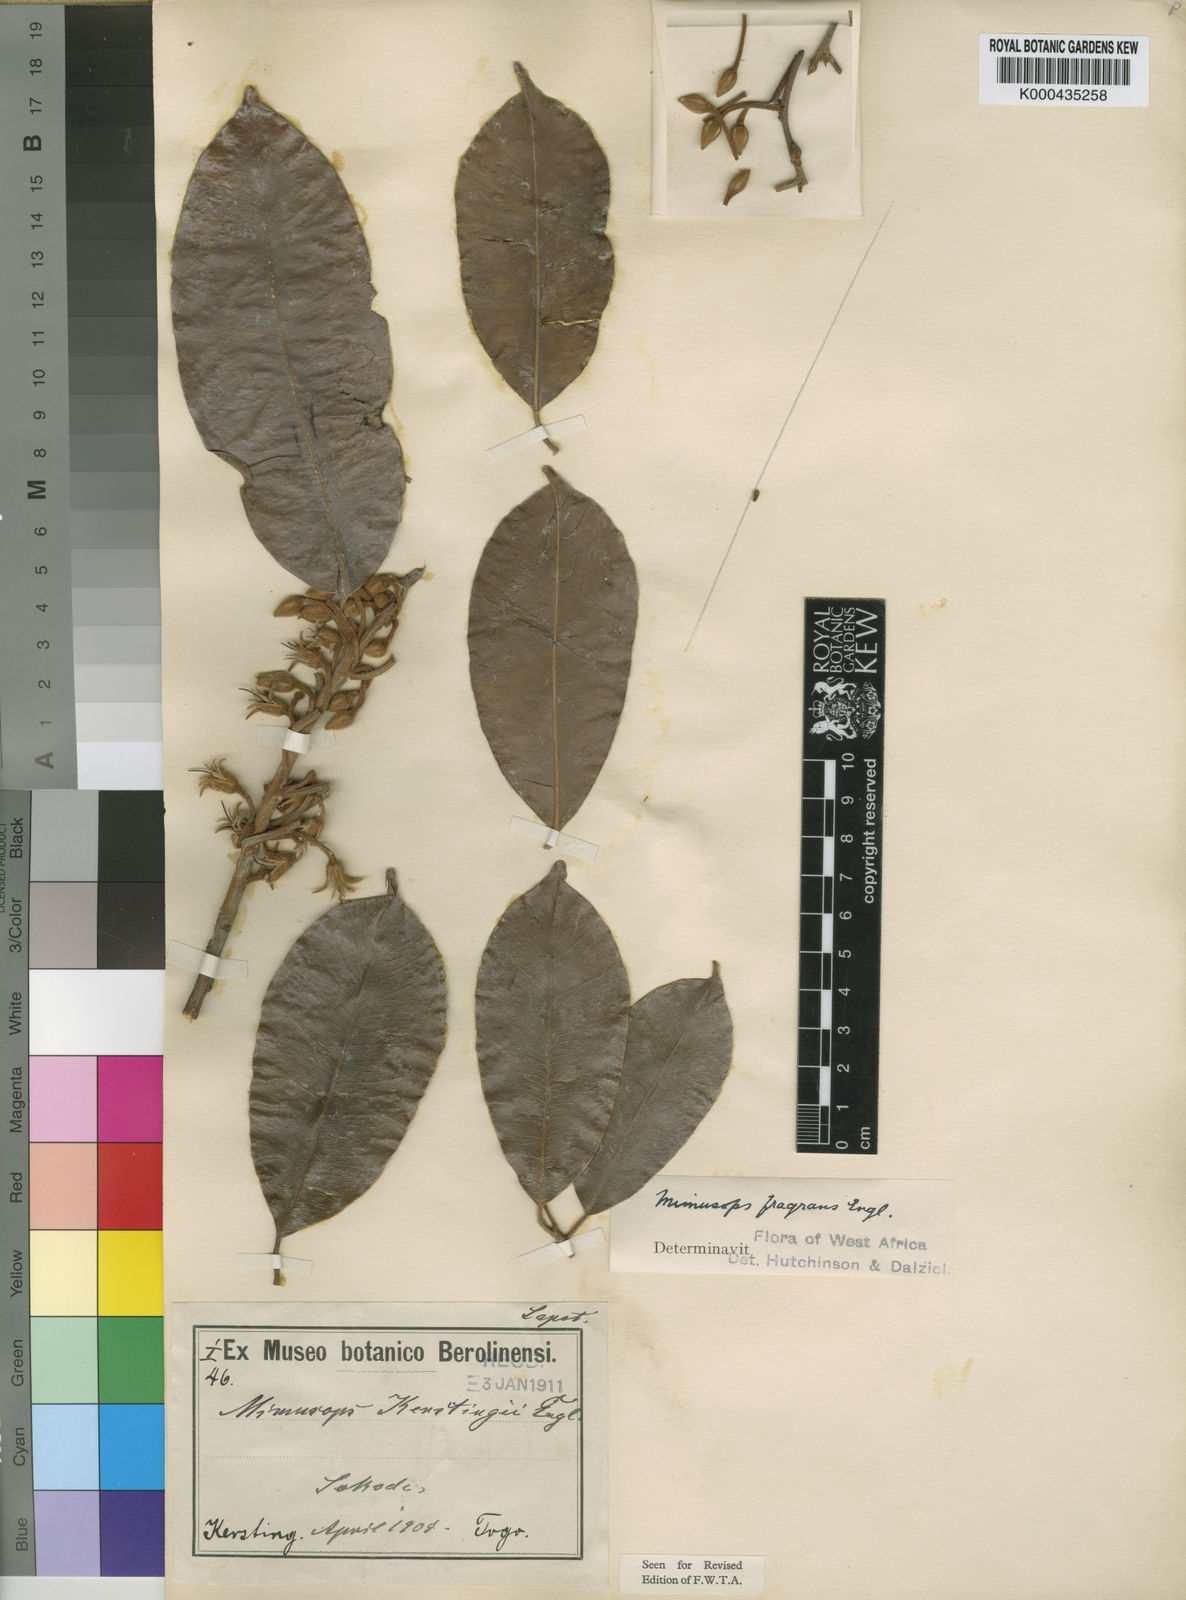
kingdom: Plantae
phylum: Tracheophyta
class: Magnoliopsida
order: Ericales
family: Sapotaceae
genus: Mimusops
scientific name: Mimusops kummel
